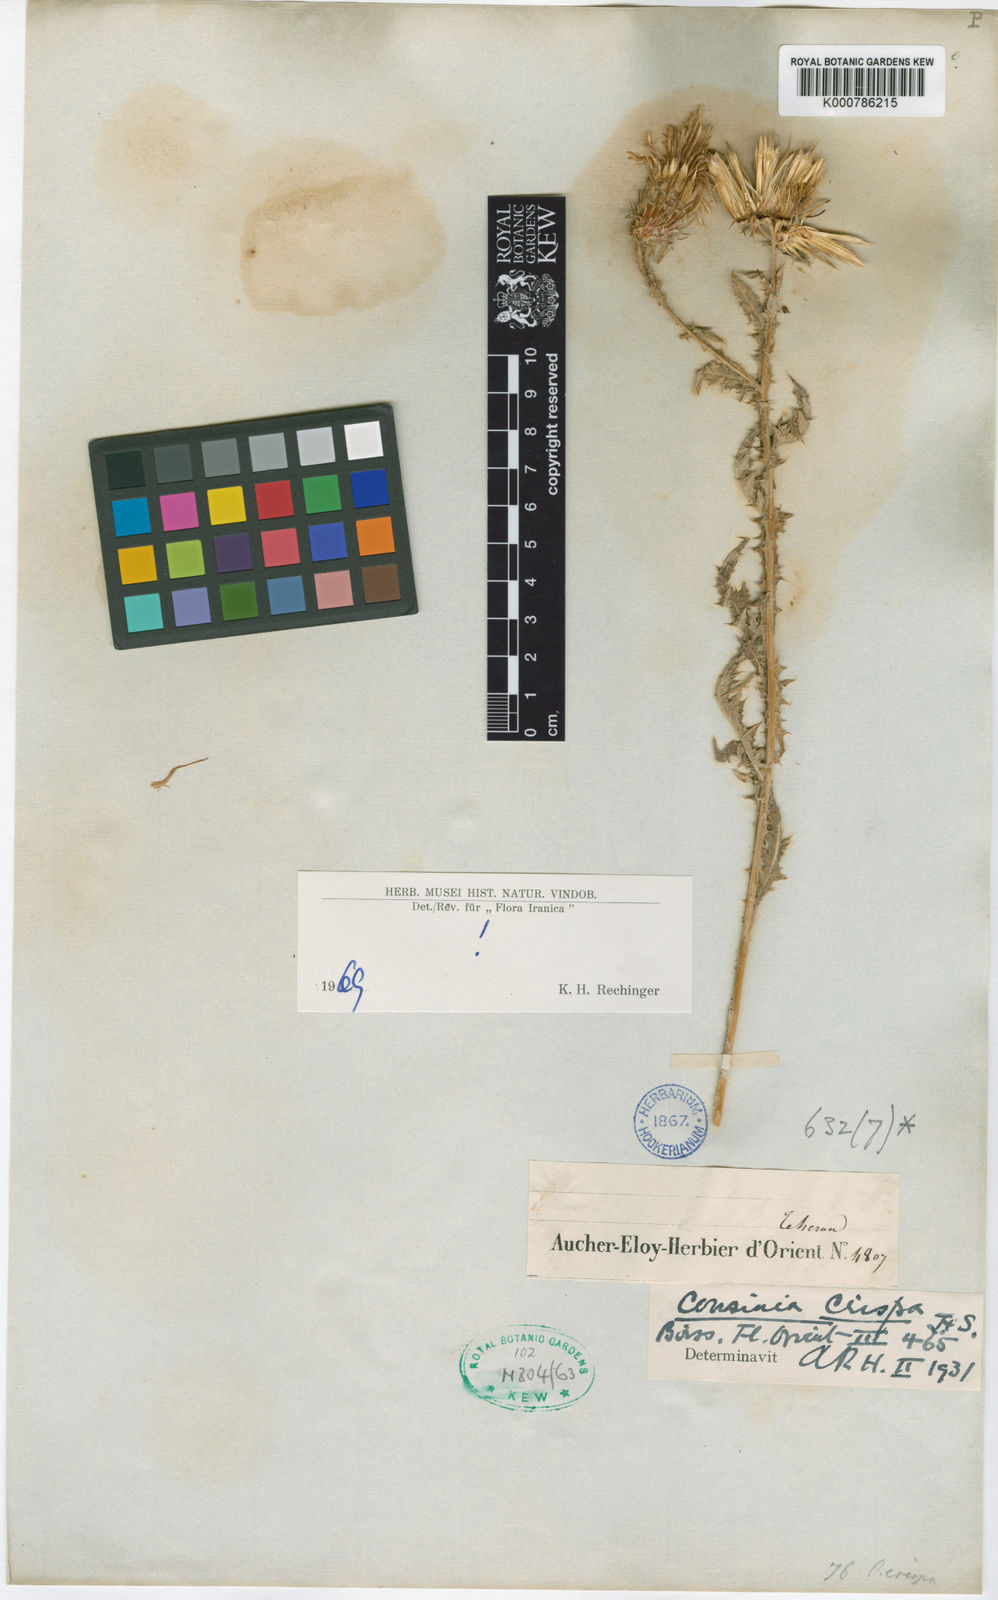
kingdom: Plantae
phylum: Tracheophyta
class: Magnoliopsida
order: Asterales
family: Asteraceae
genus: Cousinia
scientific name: Cousinia crispa
